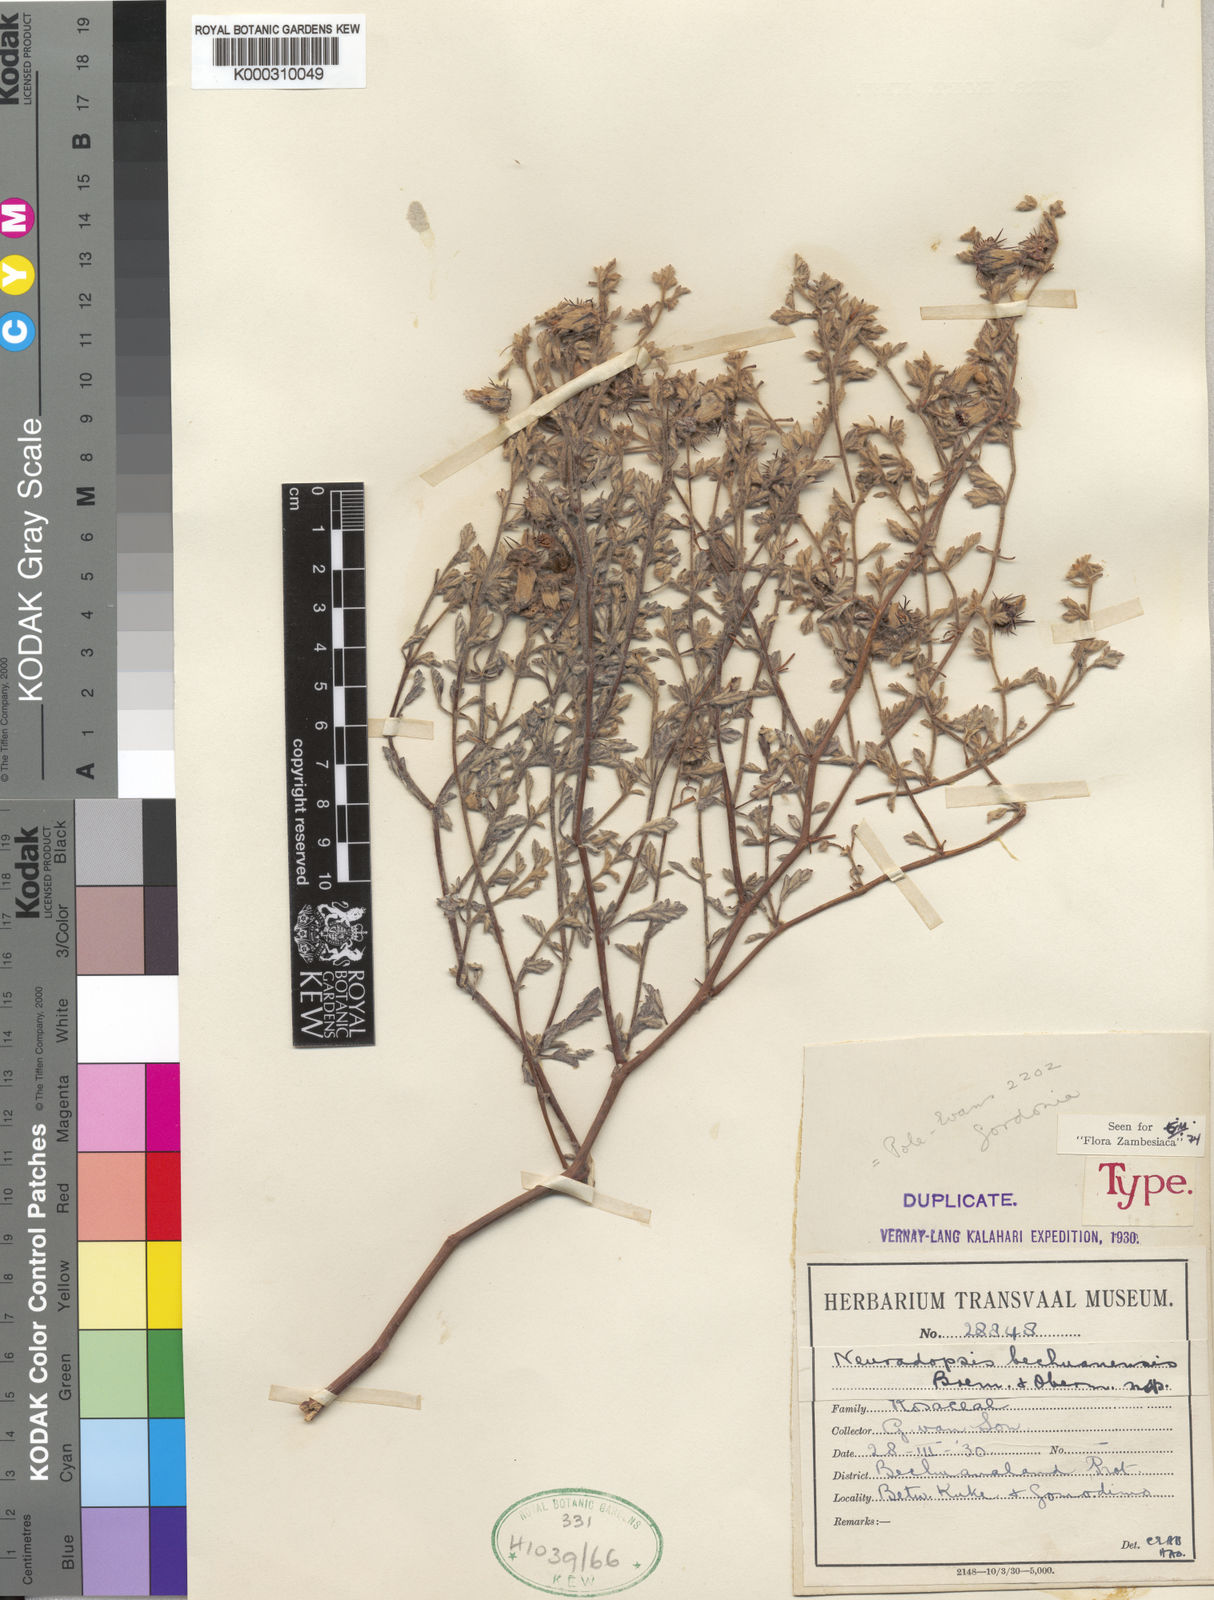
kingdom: Plantae
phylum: Tracheophyta
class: Magnoliopsida
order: Malvales
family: Neuradaceae
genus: Neuradopsis
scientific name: Neuradopsis bechuanensis
